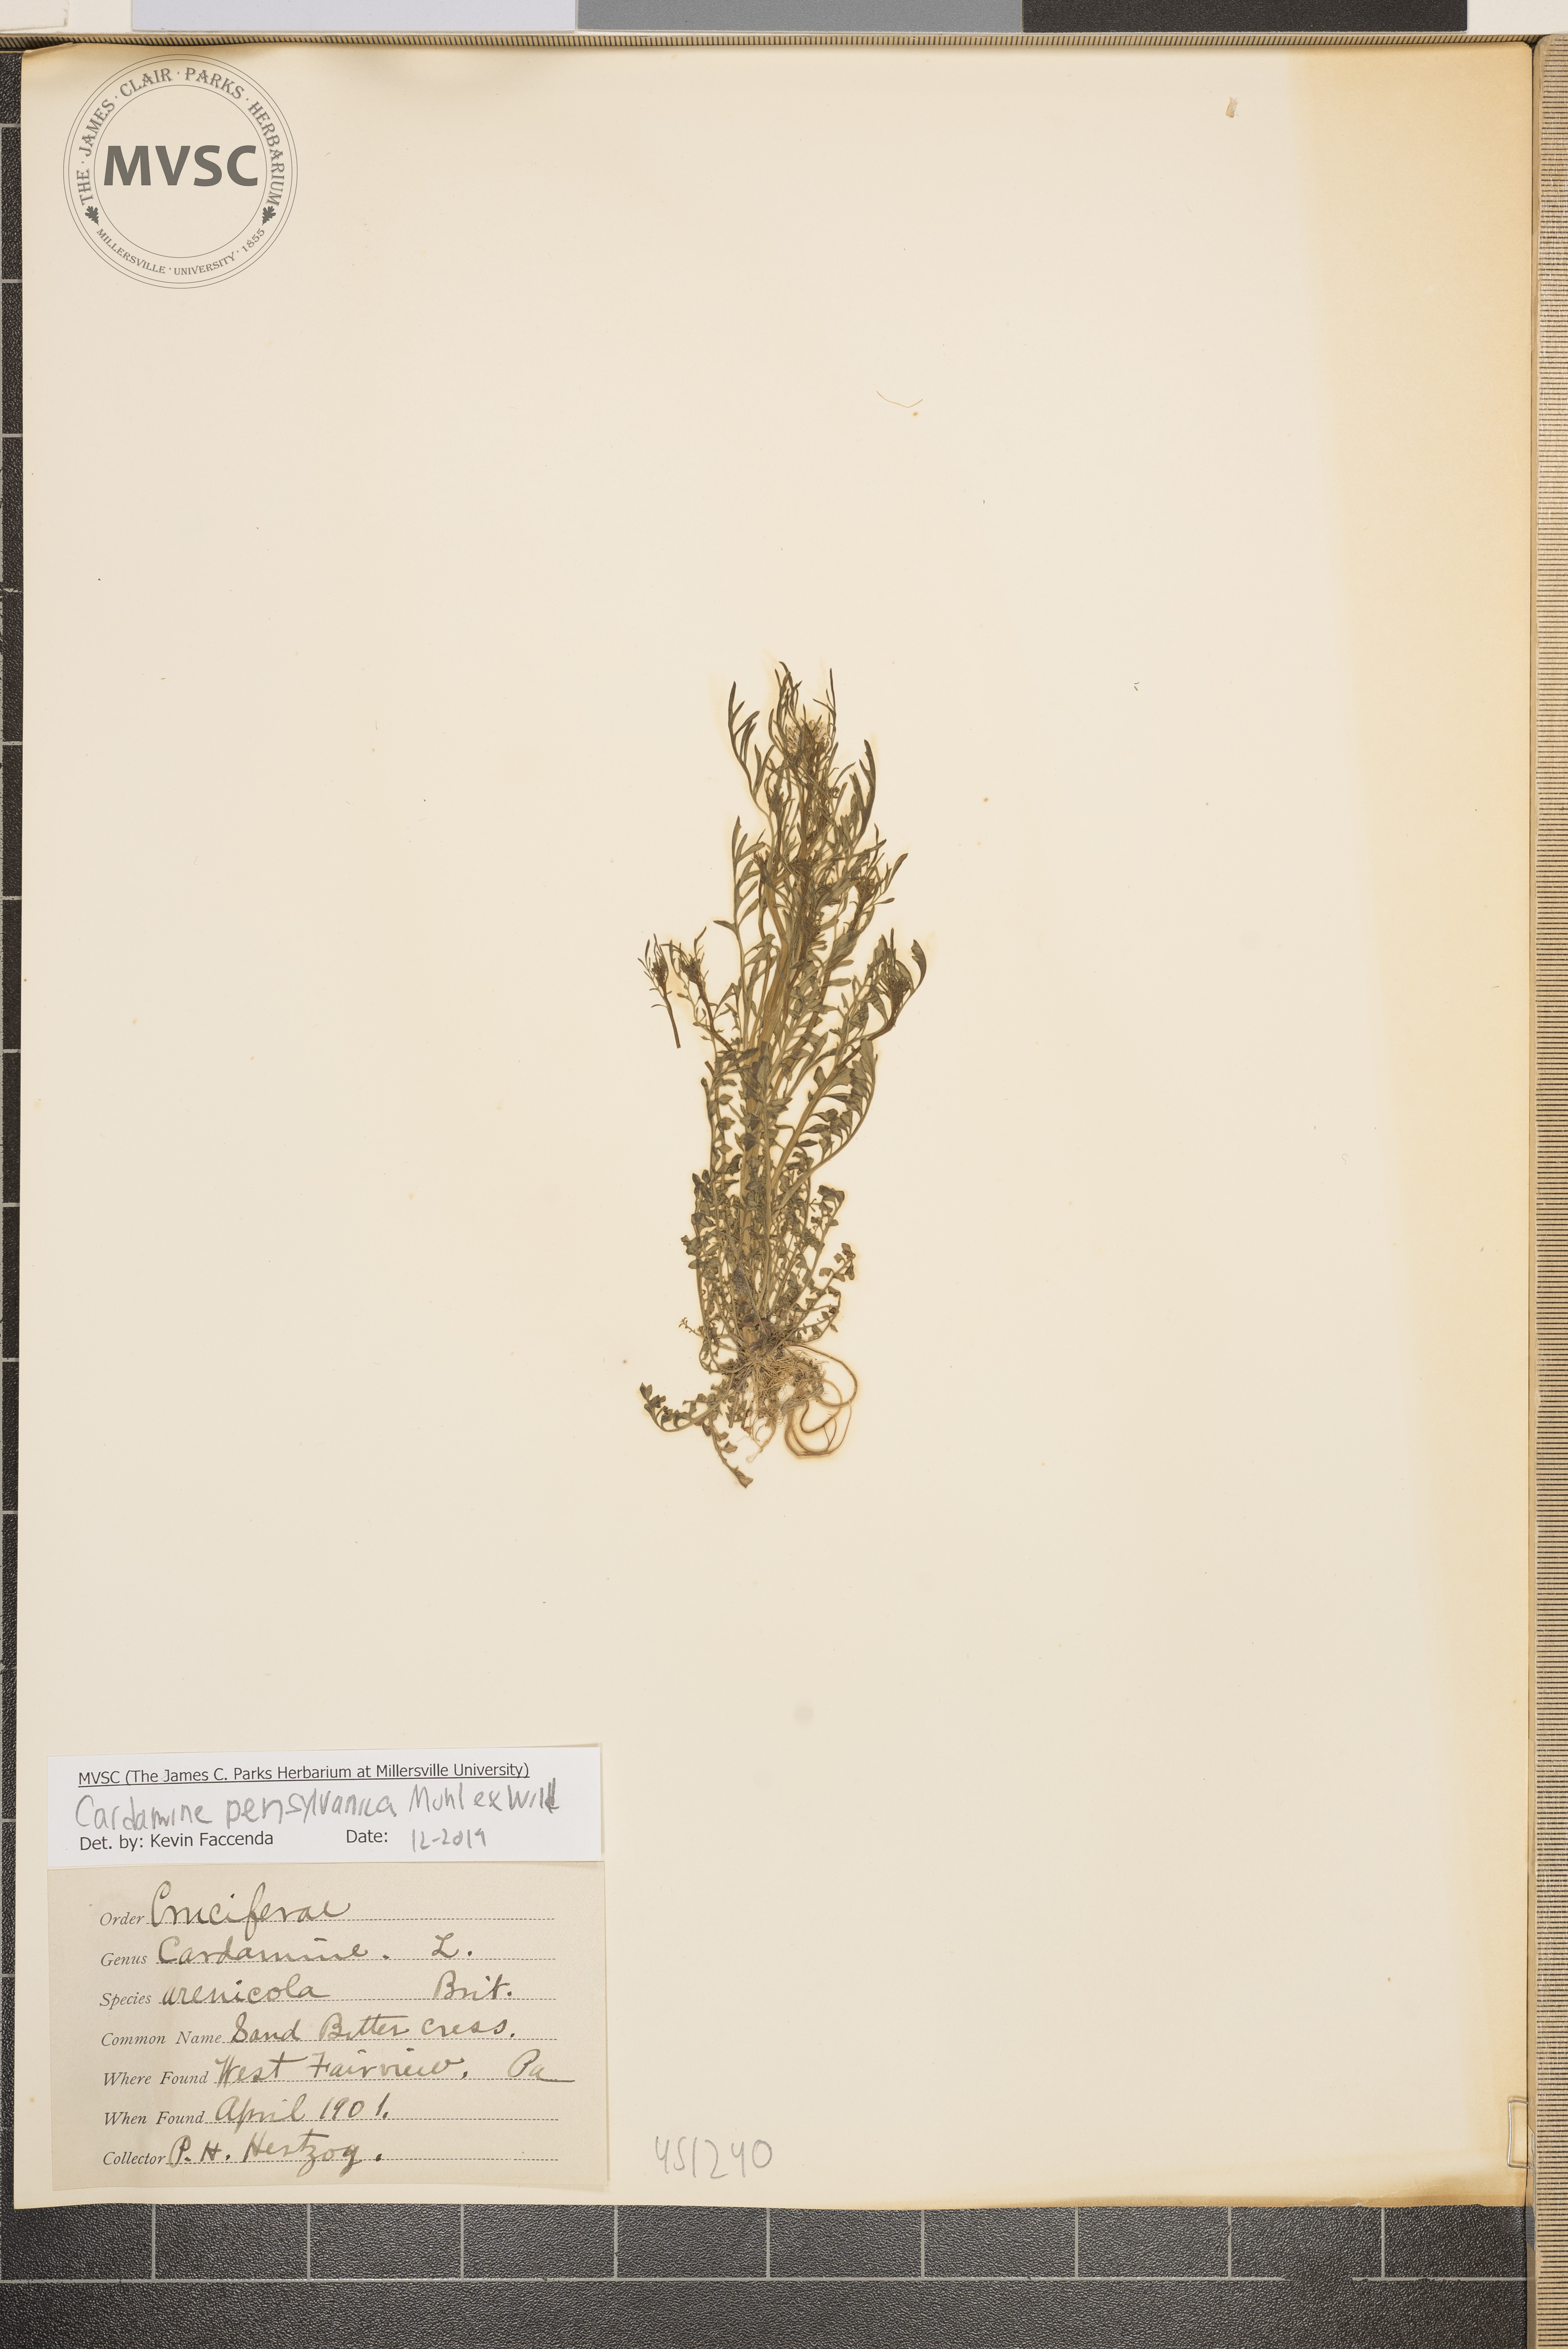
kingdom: Plantae
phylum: Tracheophyta
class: Magnoliopsida
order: Brassicales
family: Brassicaceae
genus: Cardamine
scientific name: Cardamine pensylvanica
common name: Sand Bittercress
